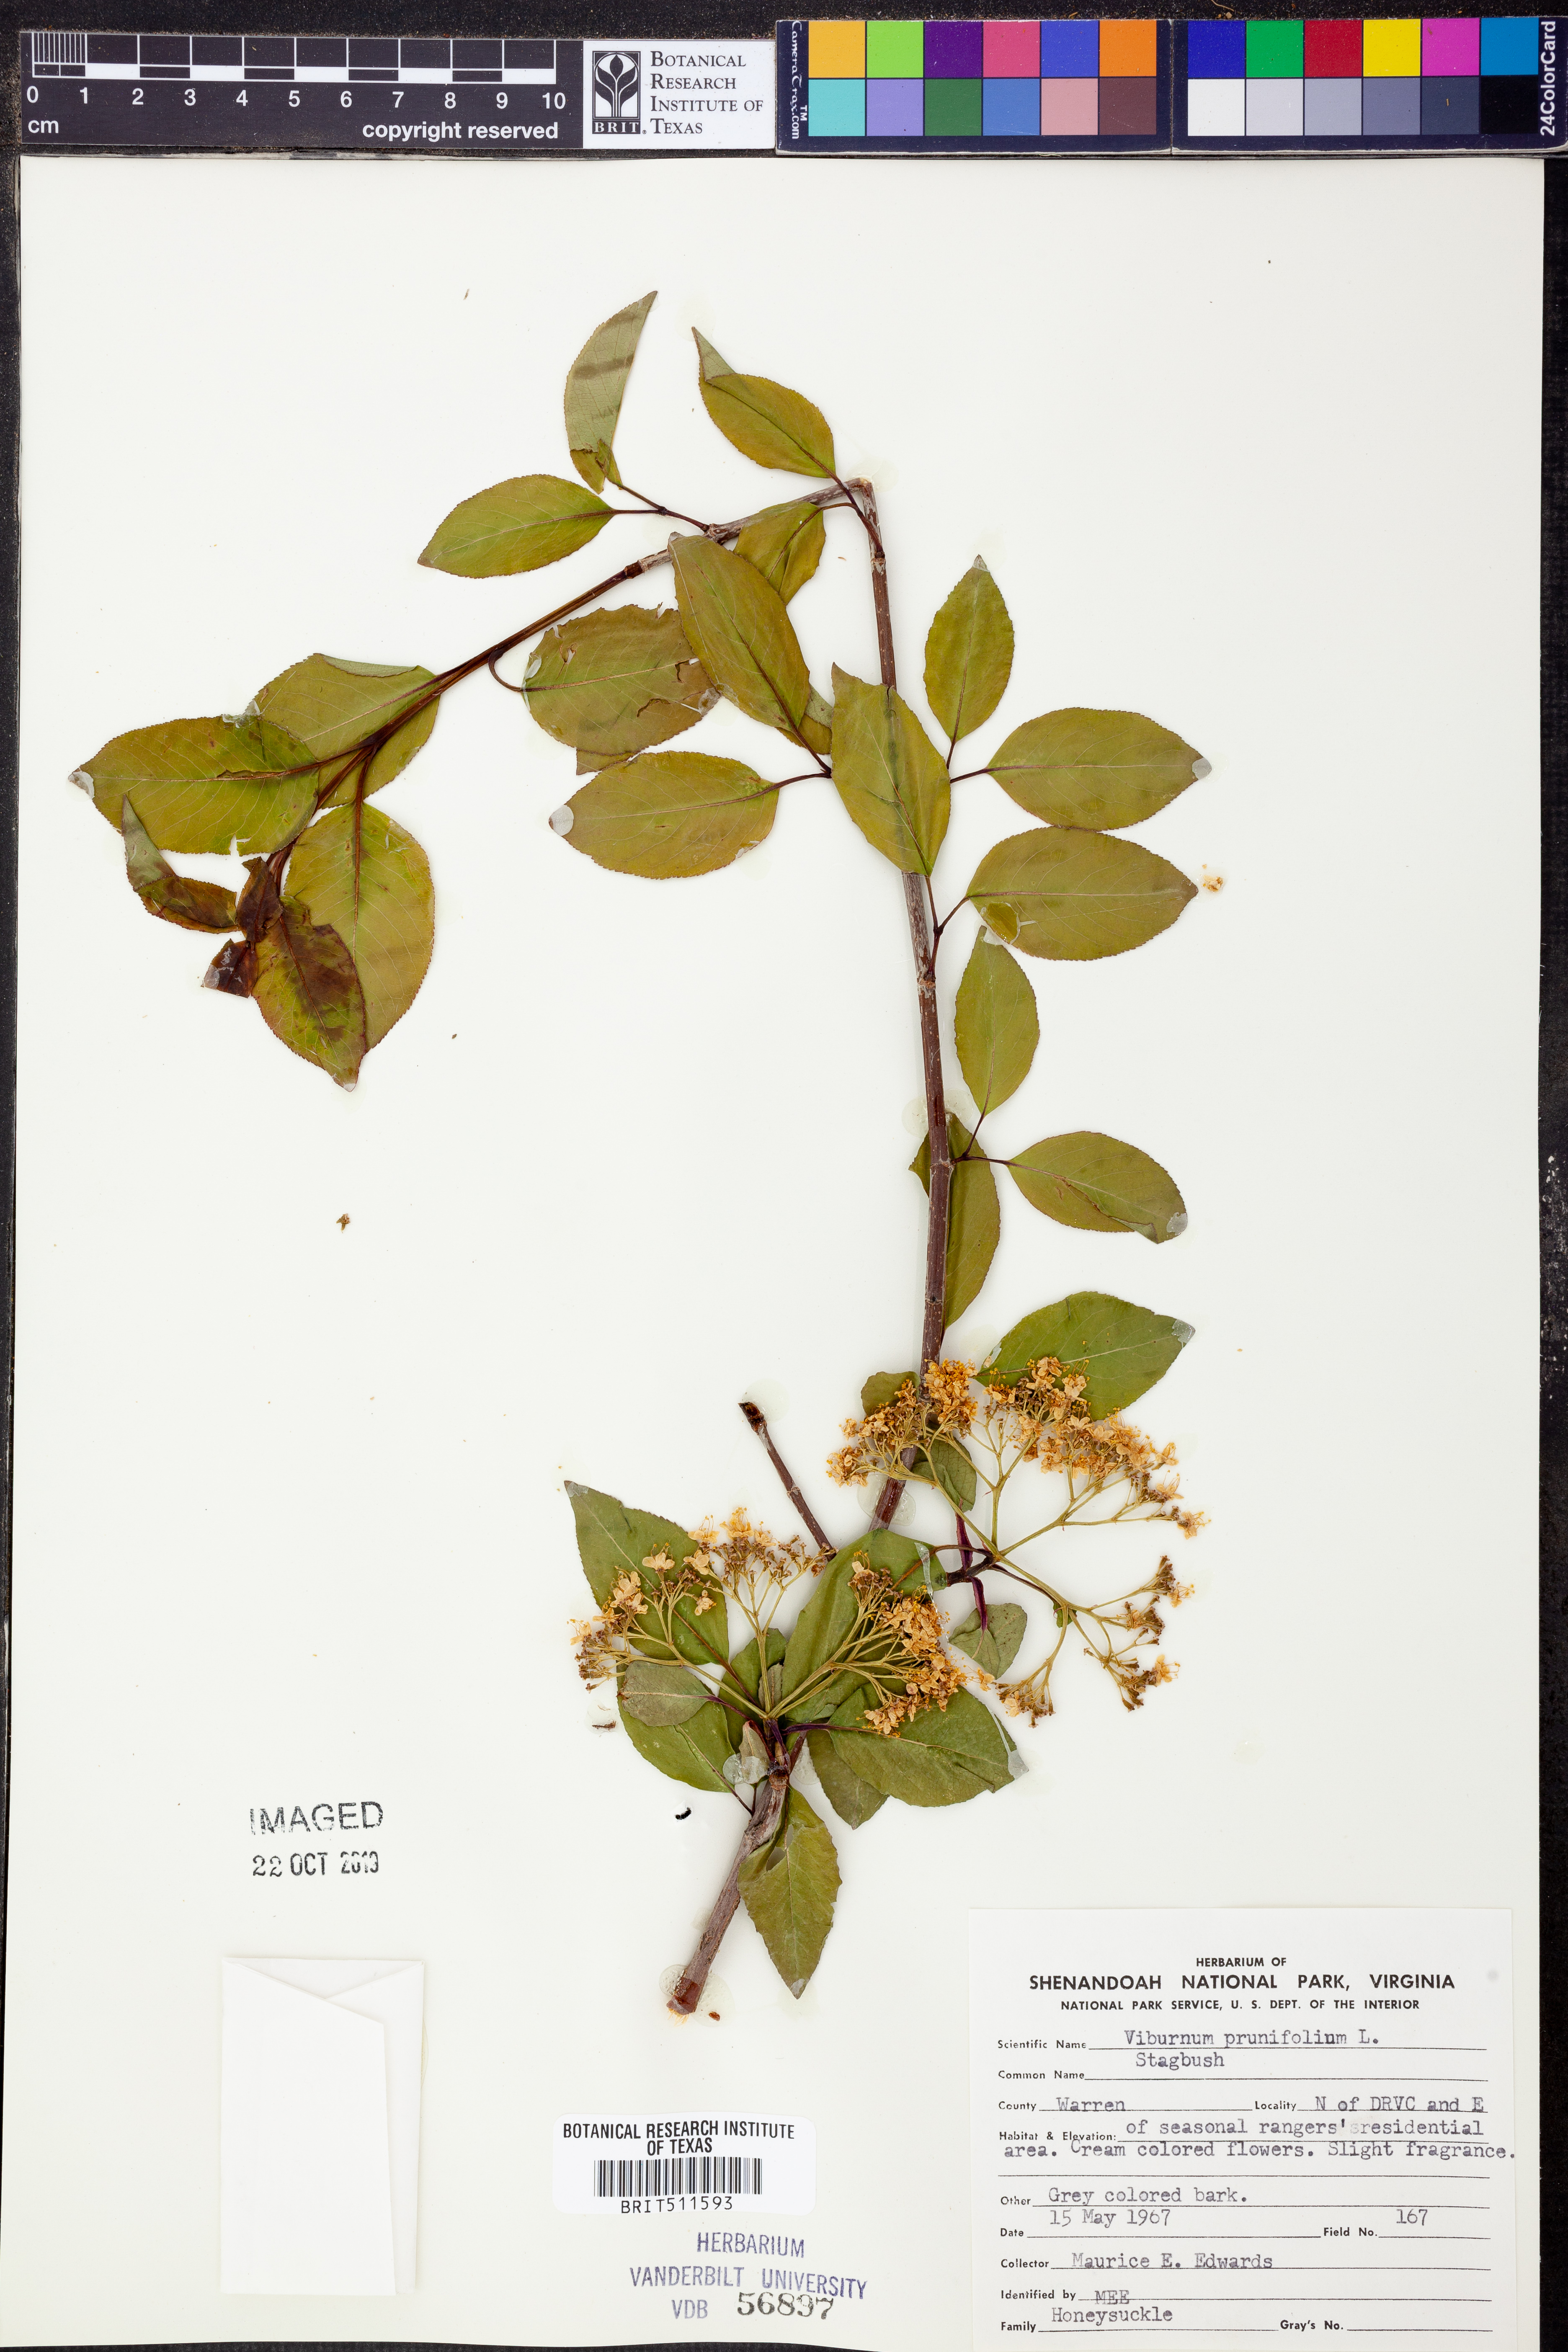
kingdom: Plantae
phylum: Tracheophyta
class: Magnoliopsida
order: Dipsacales
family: Viburnaceae
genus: Viburnum
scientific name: Viburnum prunifolium
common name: Black haw
